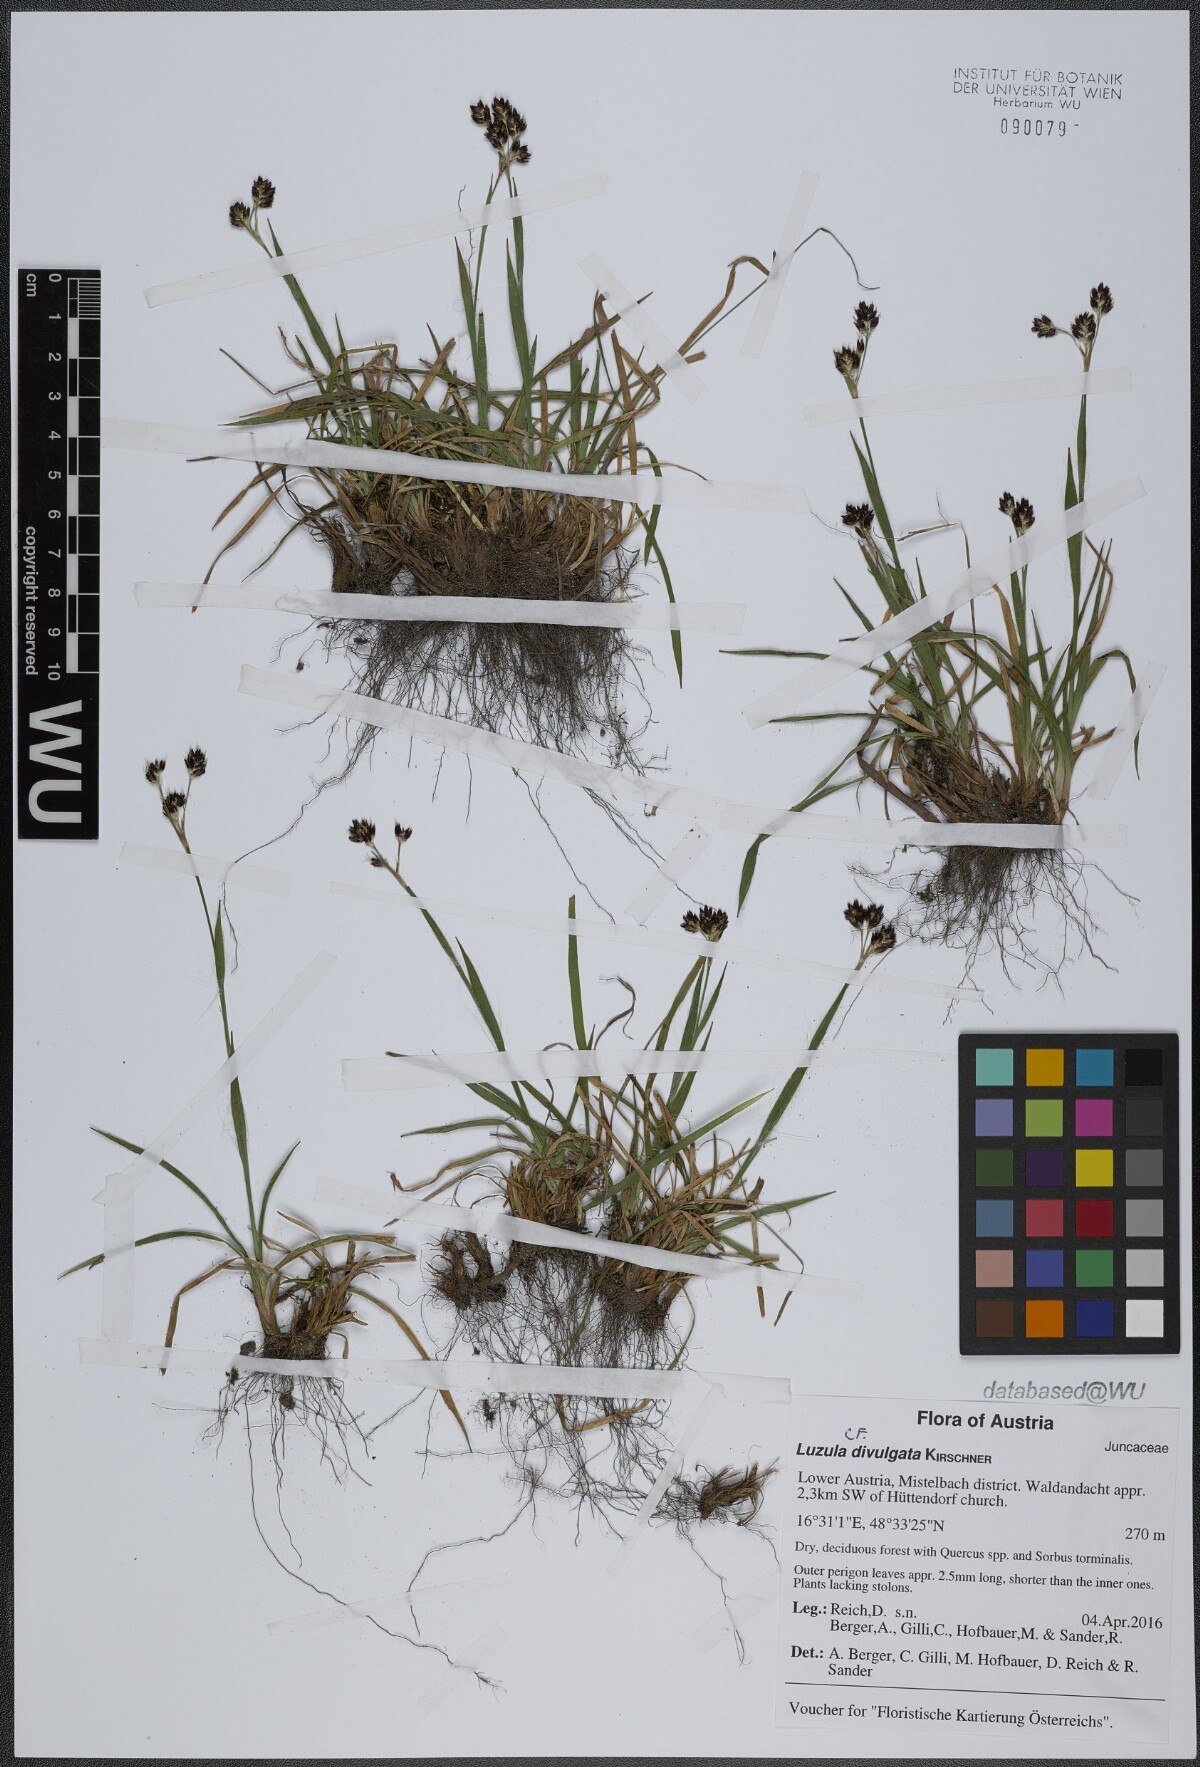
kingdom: Plantae
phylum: Tracheophyta
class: Liliopsida
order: Poales
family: Juncaceae
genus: Luzula
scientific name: Luzula divulgata
